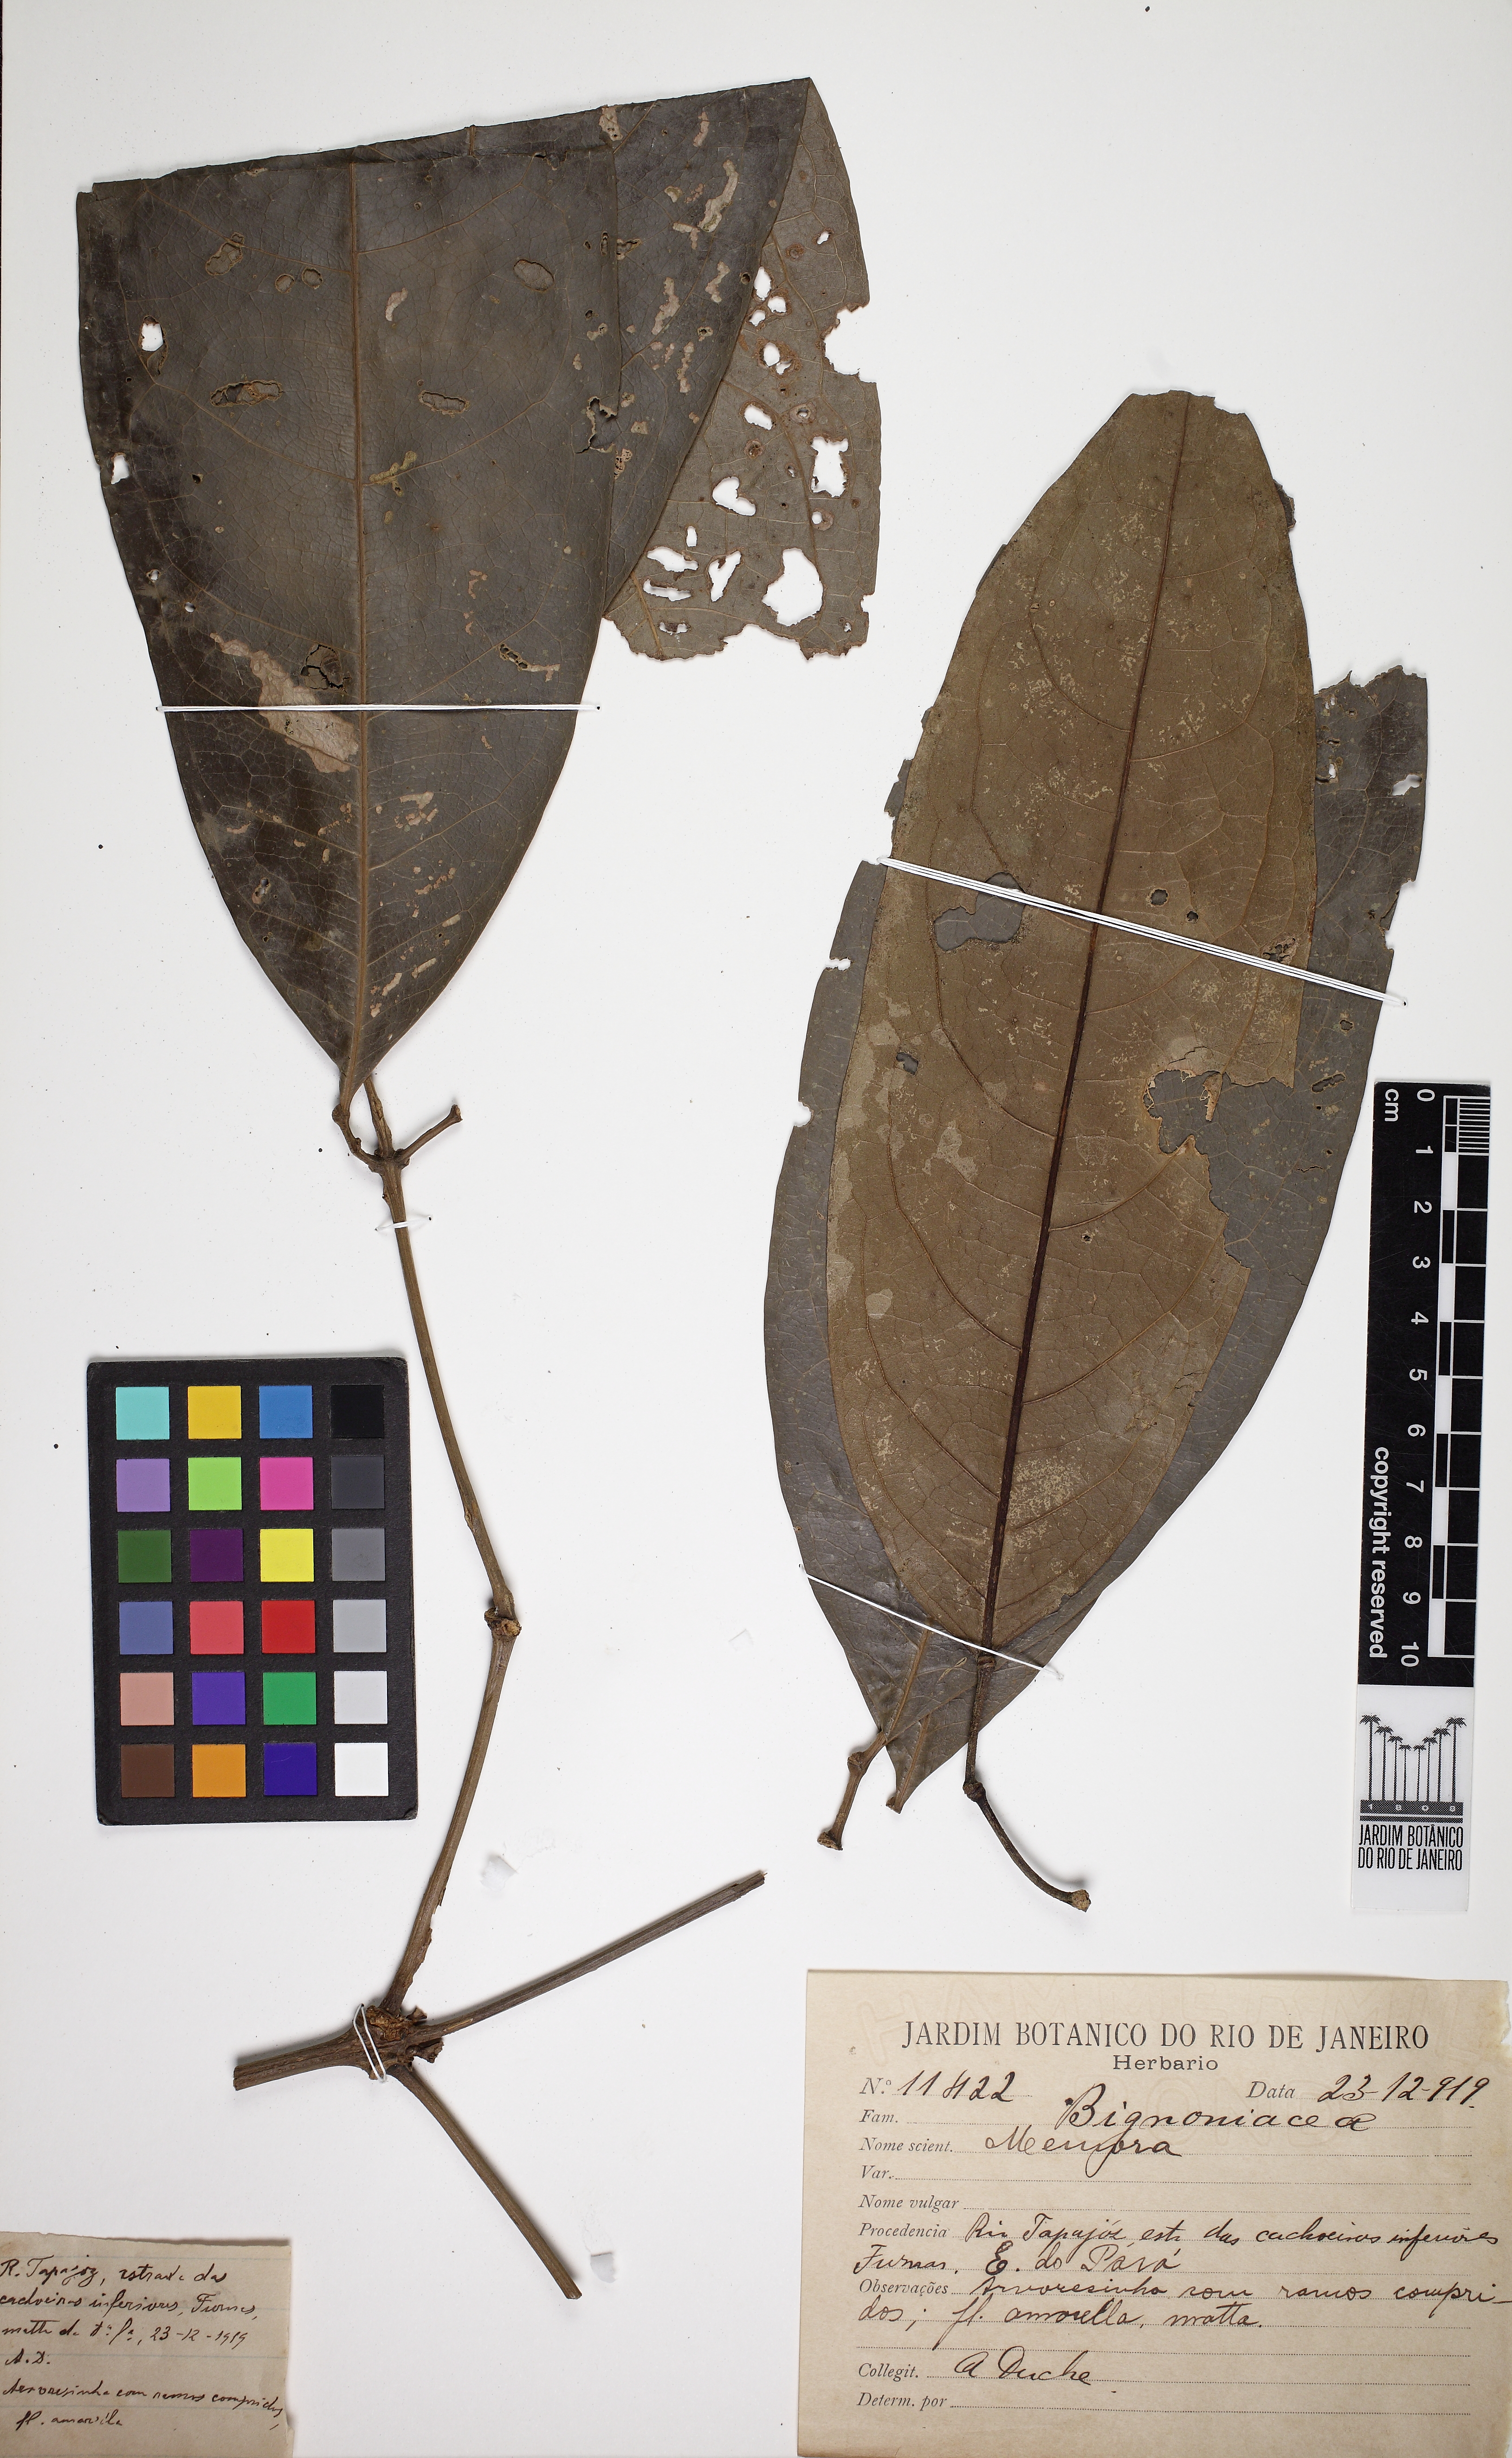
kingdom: Plantae
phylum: Tracheophyta
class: Magnoliopsida
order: Lamiales
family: Bignoniaceae
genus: Adenocalymma
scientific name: Adenocalymma
